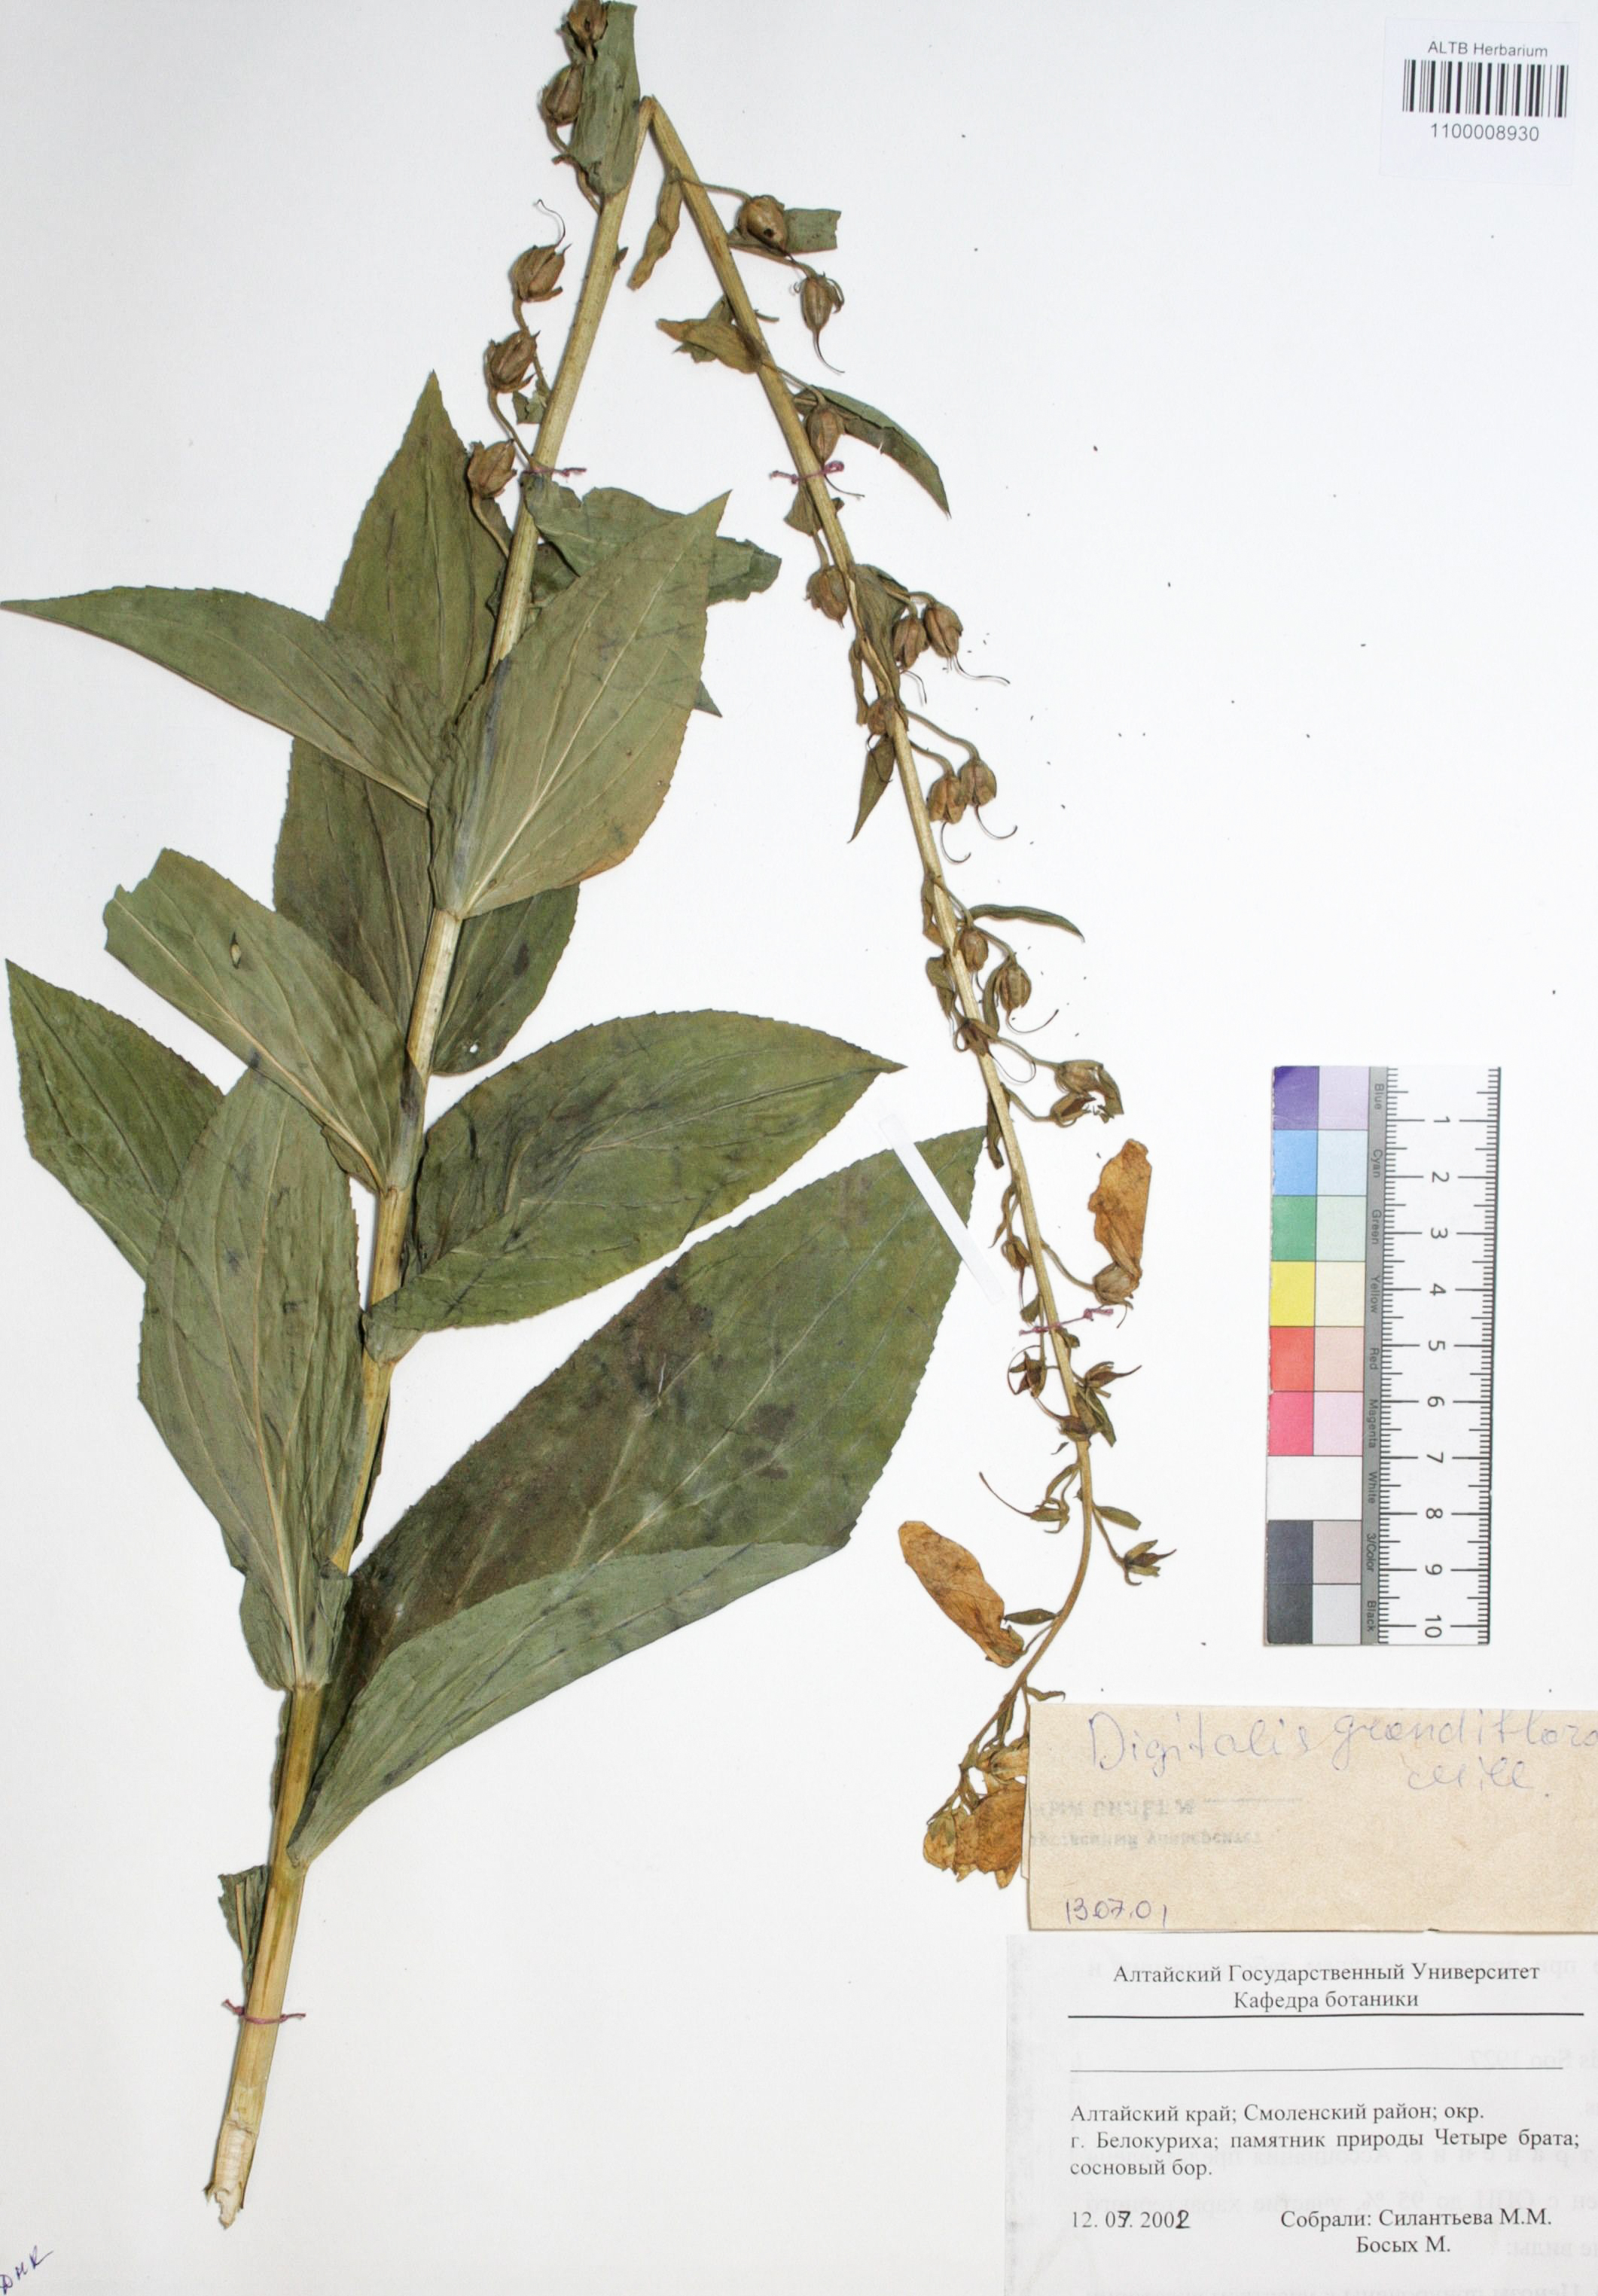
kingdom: Plantae
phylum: Tracheophyta
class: Magnoliopsida
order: Lamiales
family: Plantaginaceae
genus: Digitalis
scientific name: Digitalis grandiflora
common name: Yellow foxglove
